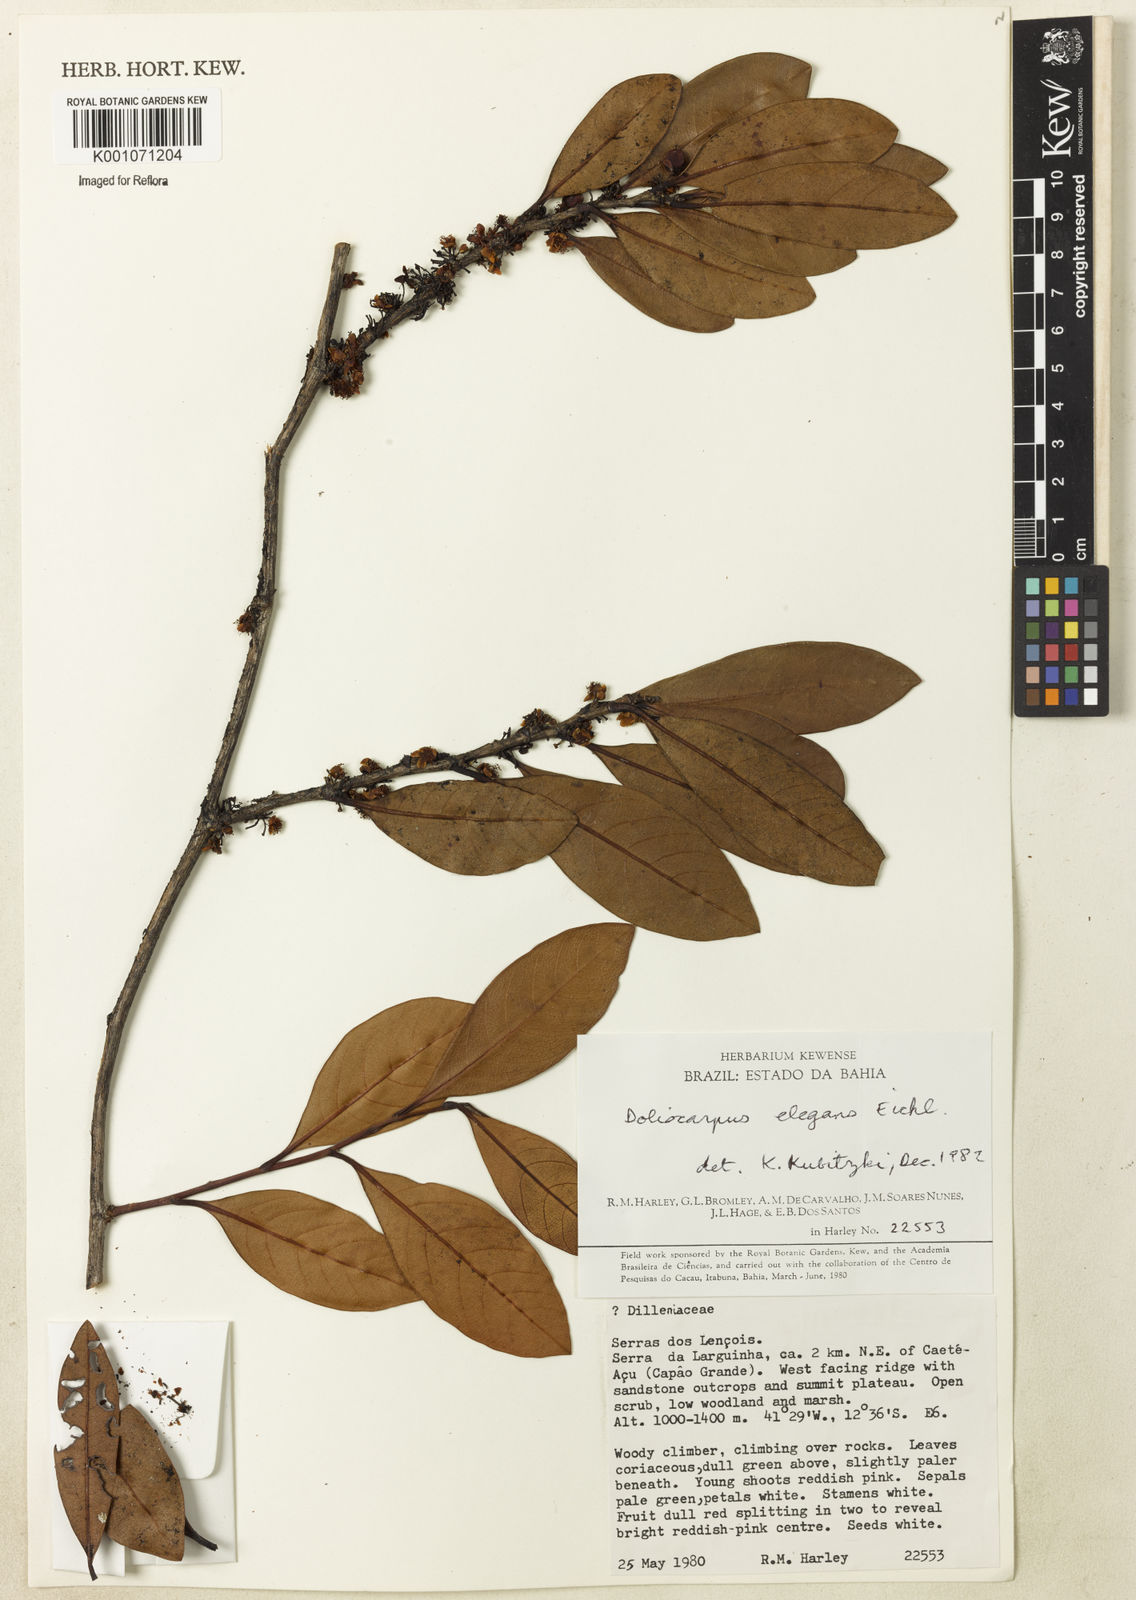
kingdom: Plantae
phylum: Tracheophyta
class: Magnoliopsida
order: Dilleniales
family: Dilleniaceae
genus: Doliocarpus
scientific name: Doliocarpus elegans
